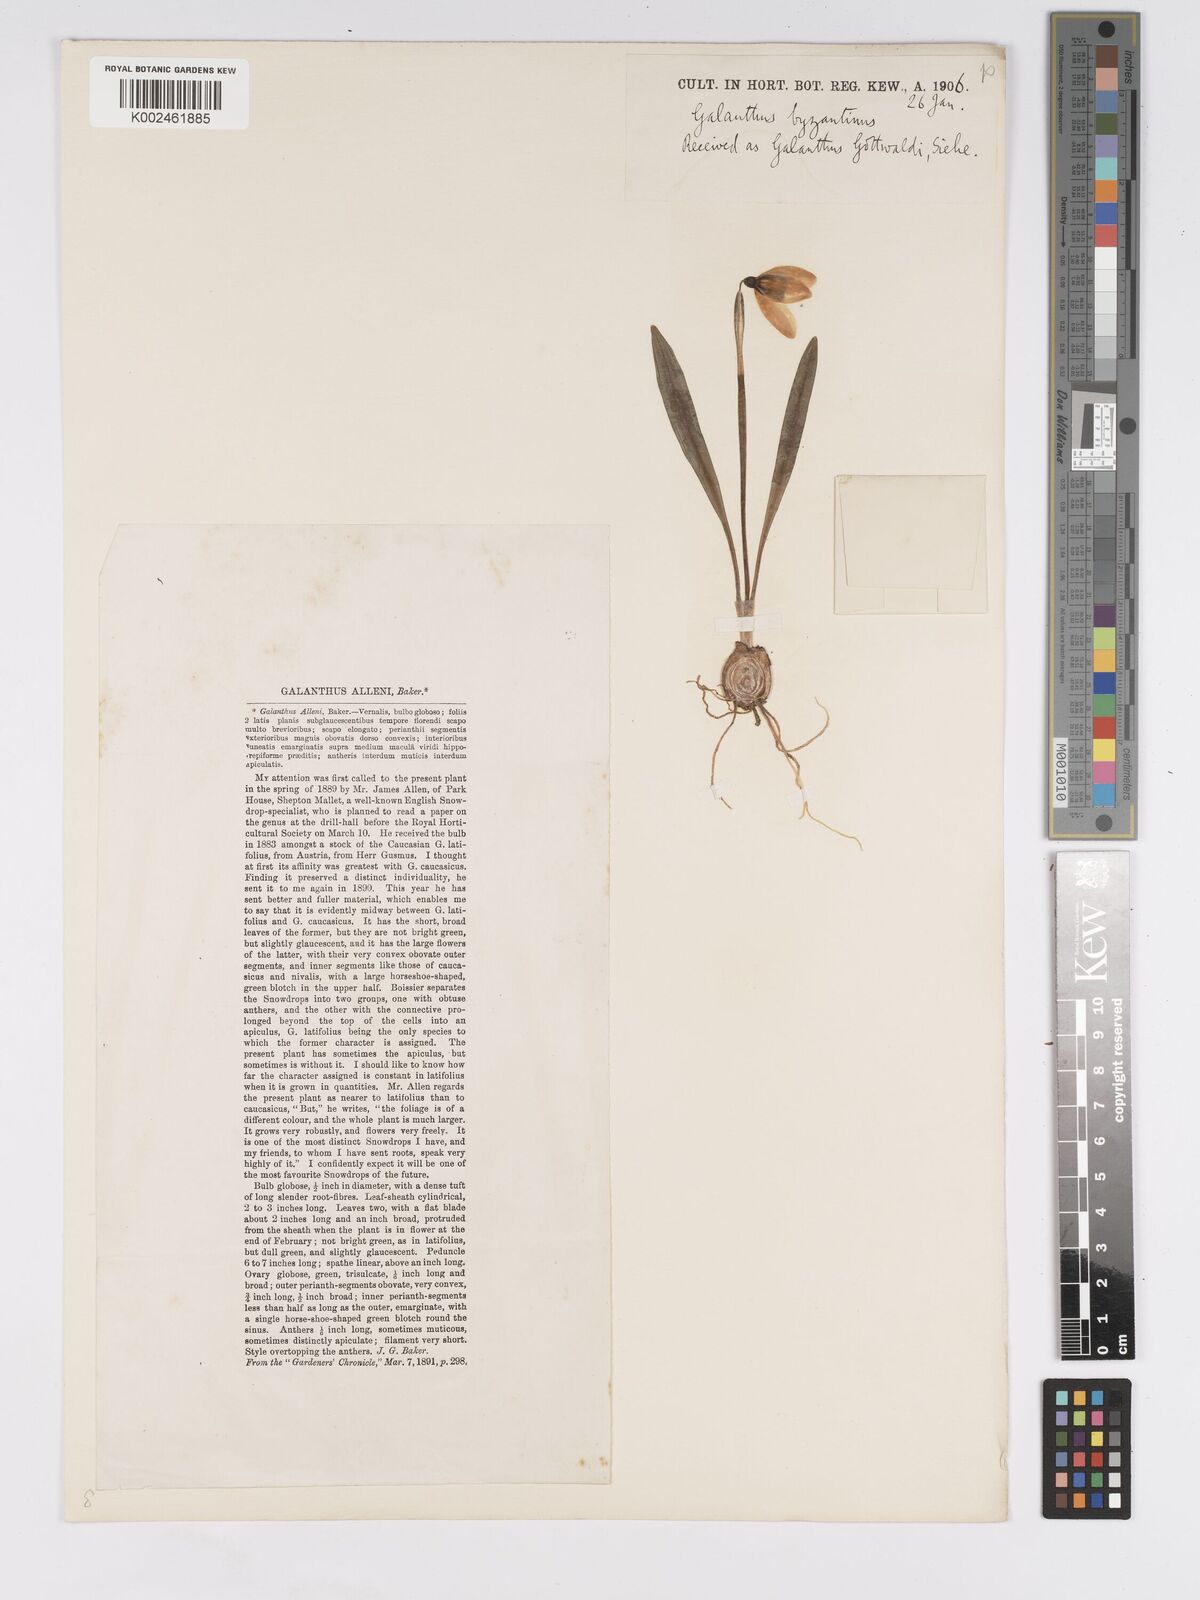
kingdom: Plantae
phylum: Tracheophyta
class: Liliopsida
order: Asparagales
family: Amaryllidaceae
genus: Galanthus
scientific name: Galanthus
